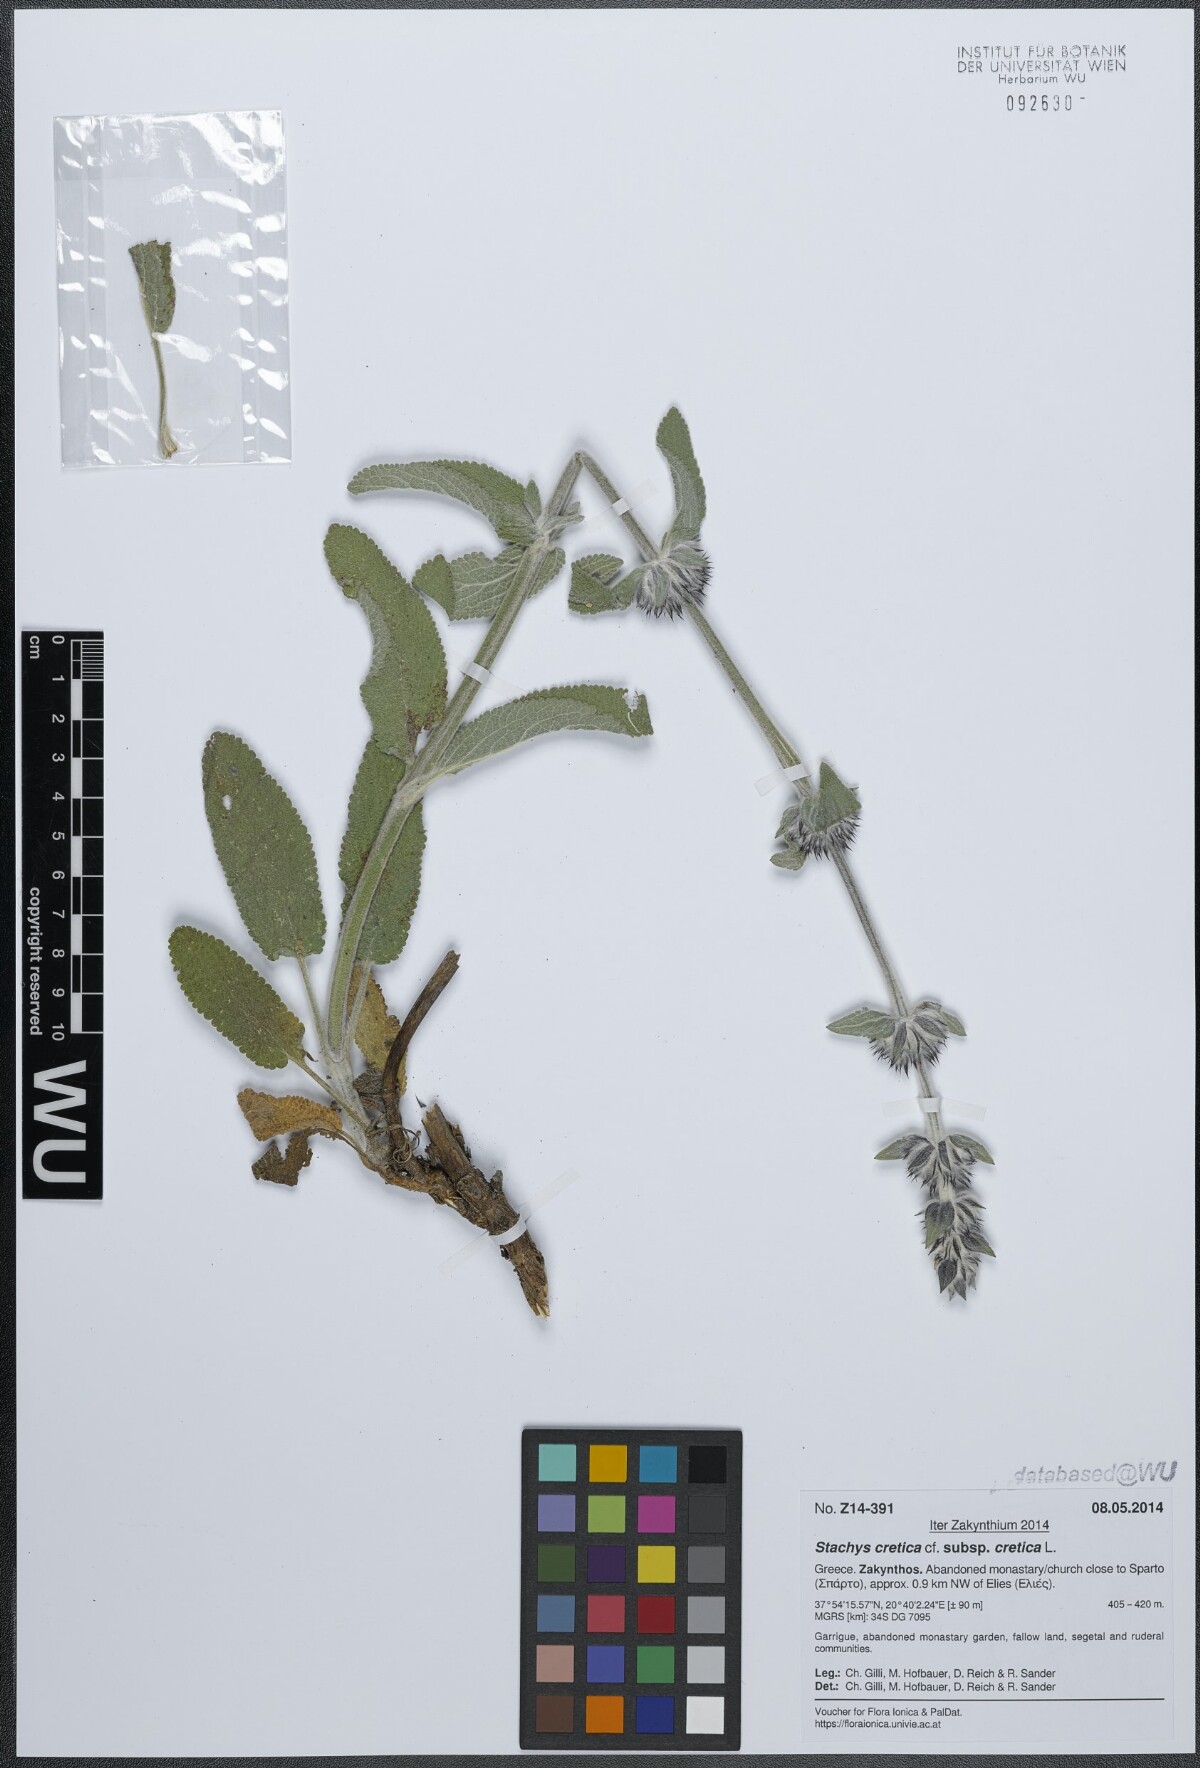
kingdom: Plantae
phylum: Tracheophyta
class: Magnoliopsida
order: Lamiales
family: Lamiaceae
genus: Stachys
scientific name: Stachys cretica
